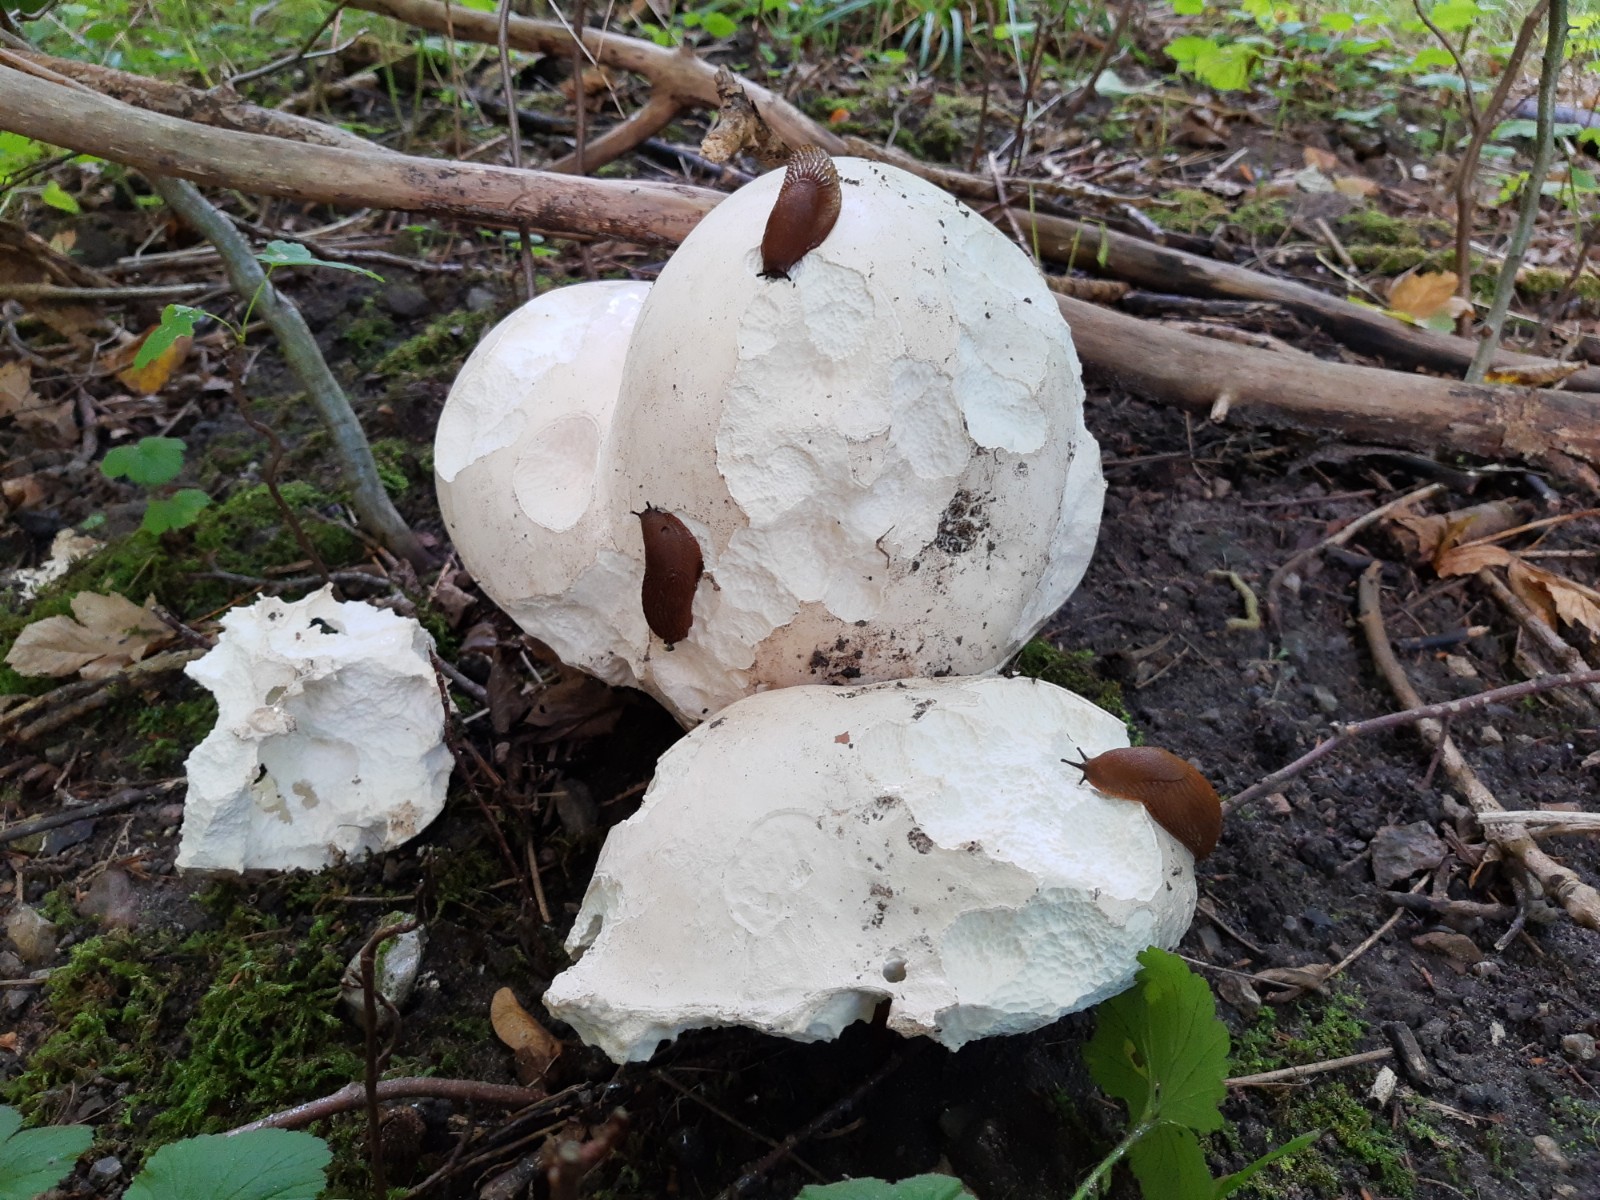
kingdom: Fungi
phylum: Basidiomycota
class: Agaricomycetes
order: Agaricales
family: Lycoperdaceae
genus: Calvatia
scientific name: Calvatia gigantea
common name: kæmpestøvbold
